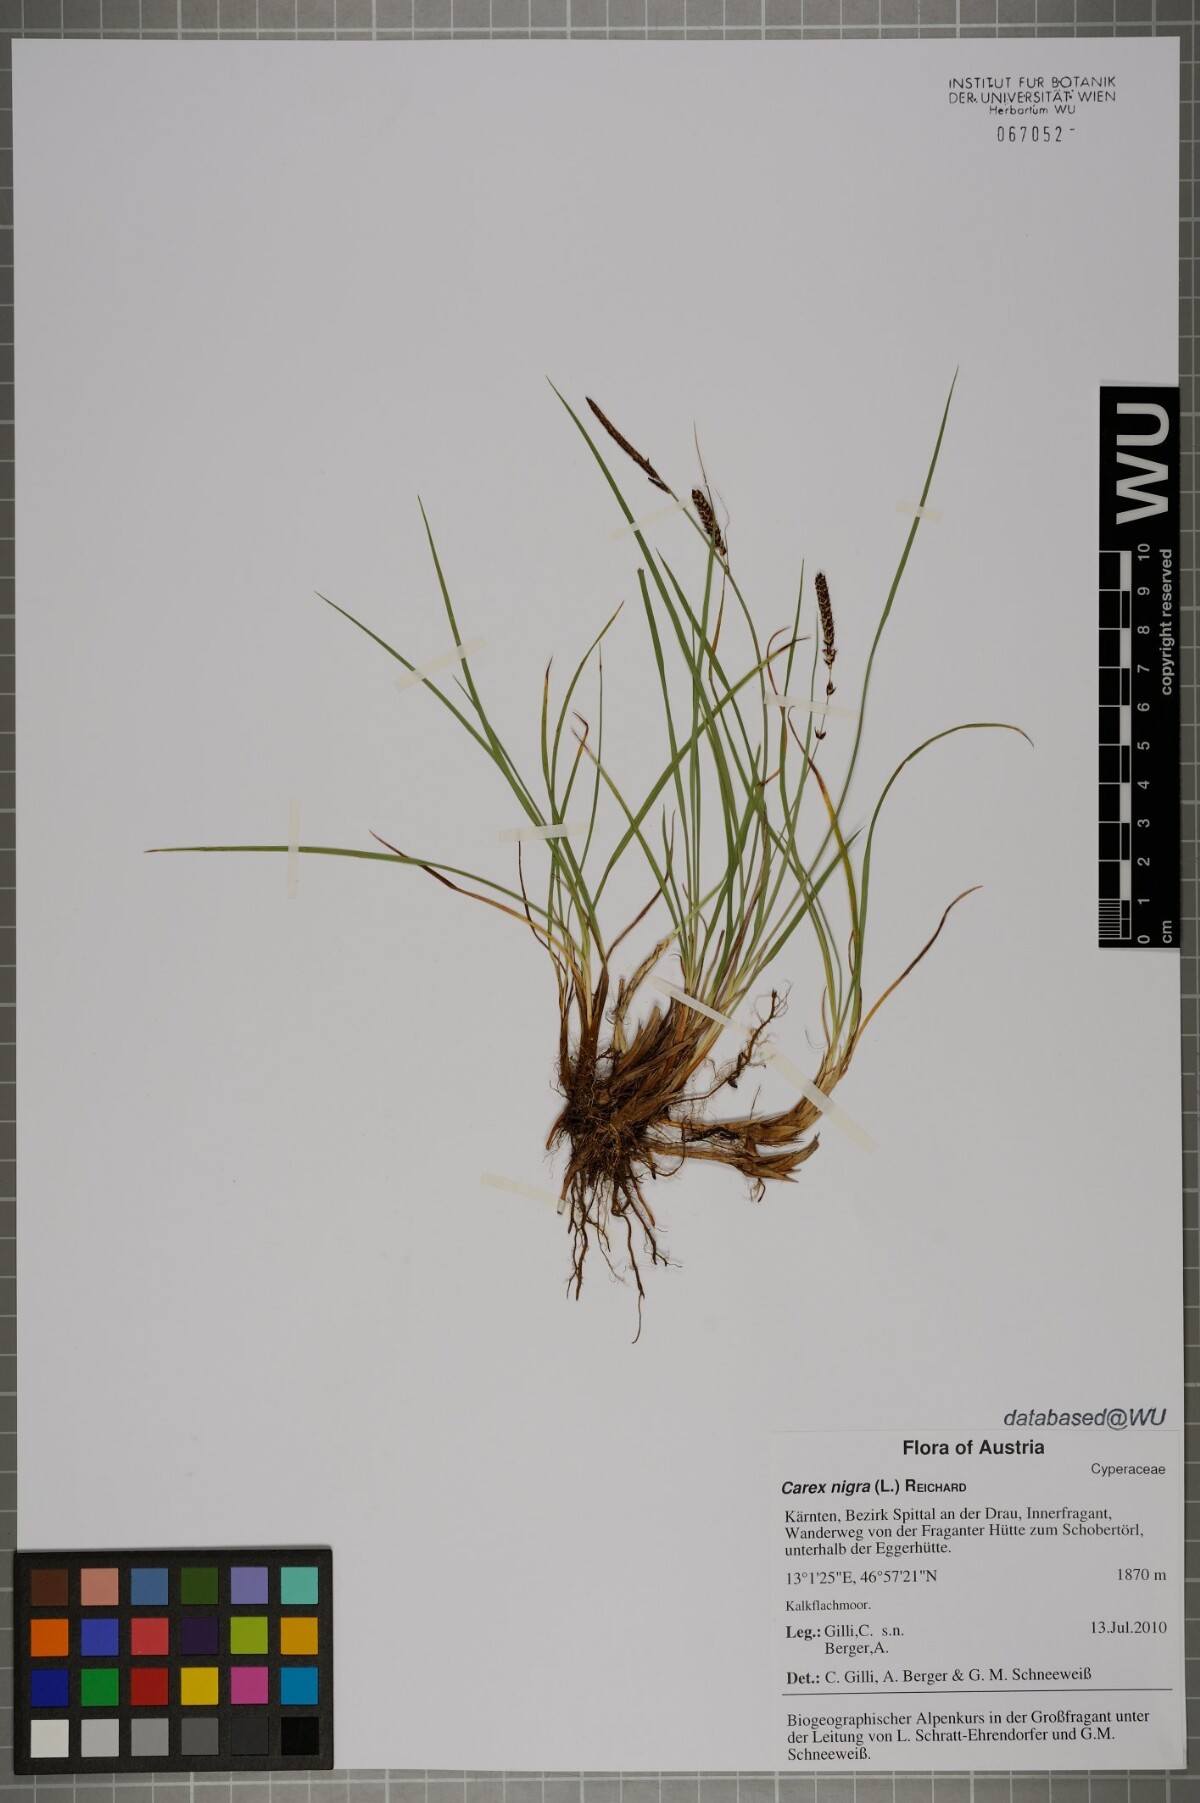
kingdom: Plantae
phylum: Tracheophyta
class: Liliopsida
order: Poales
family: Cyperaceae
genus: Carex
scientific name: Carex nigra
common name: Common sedge
